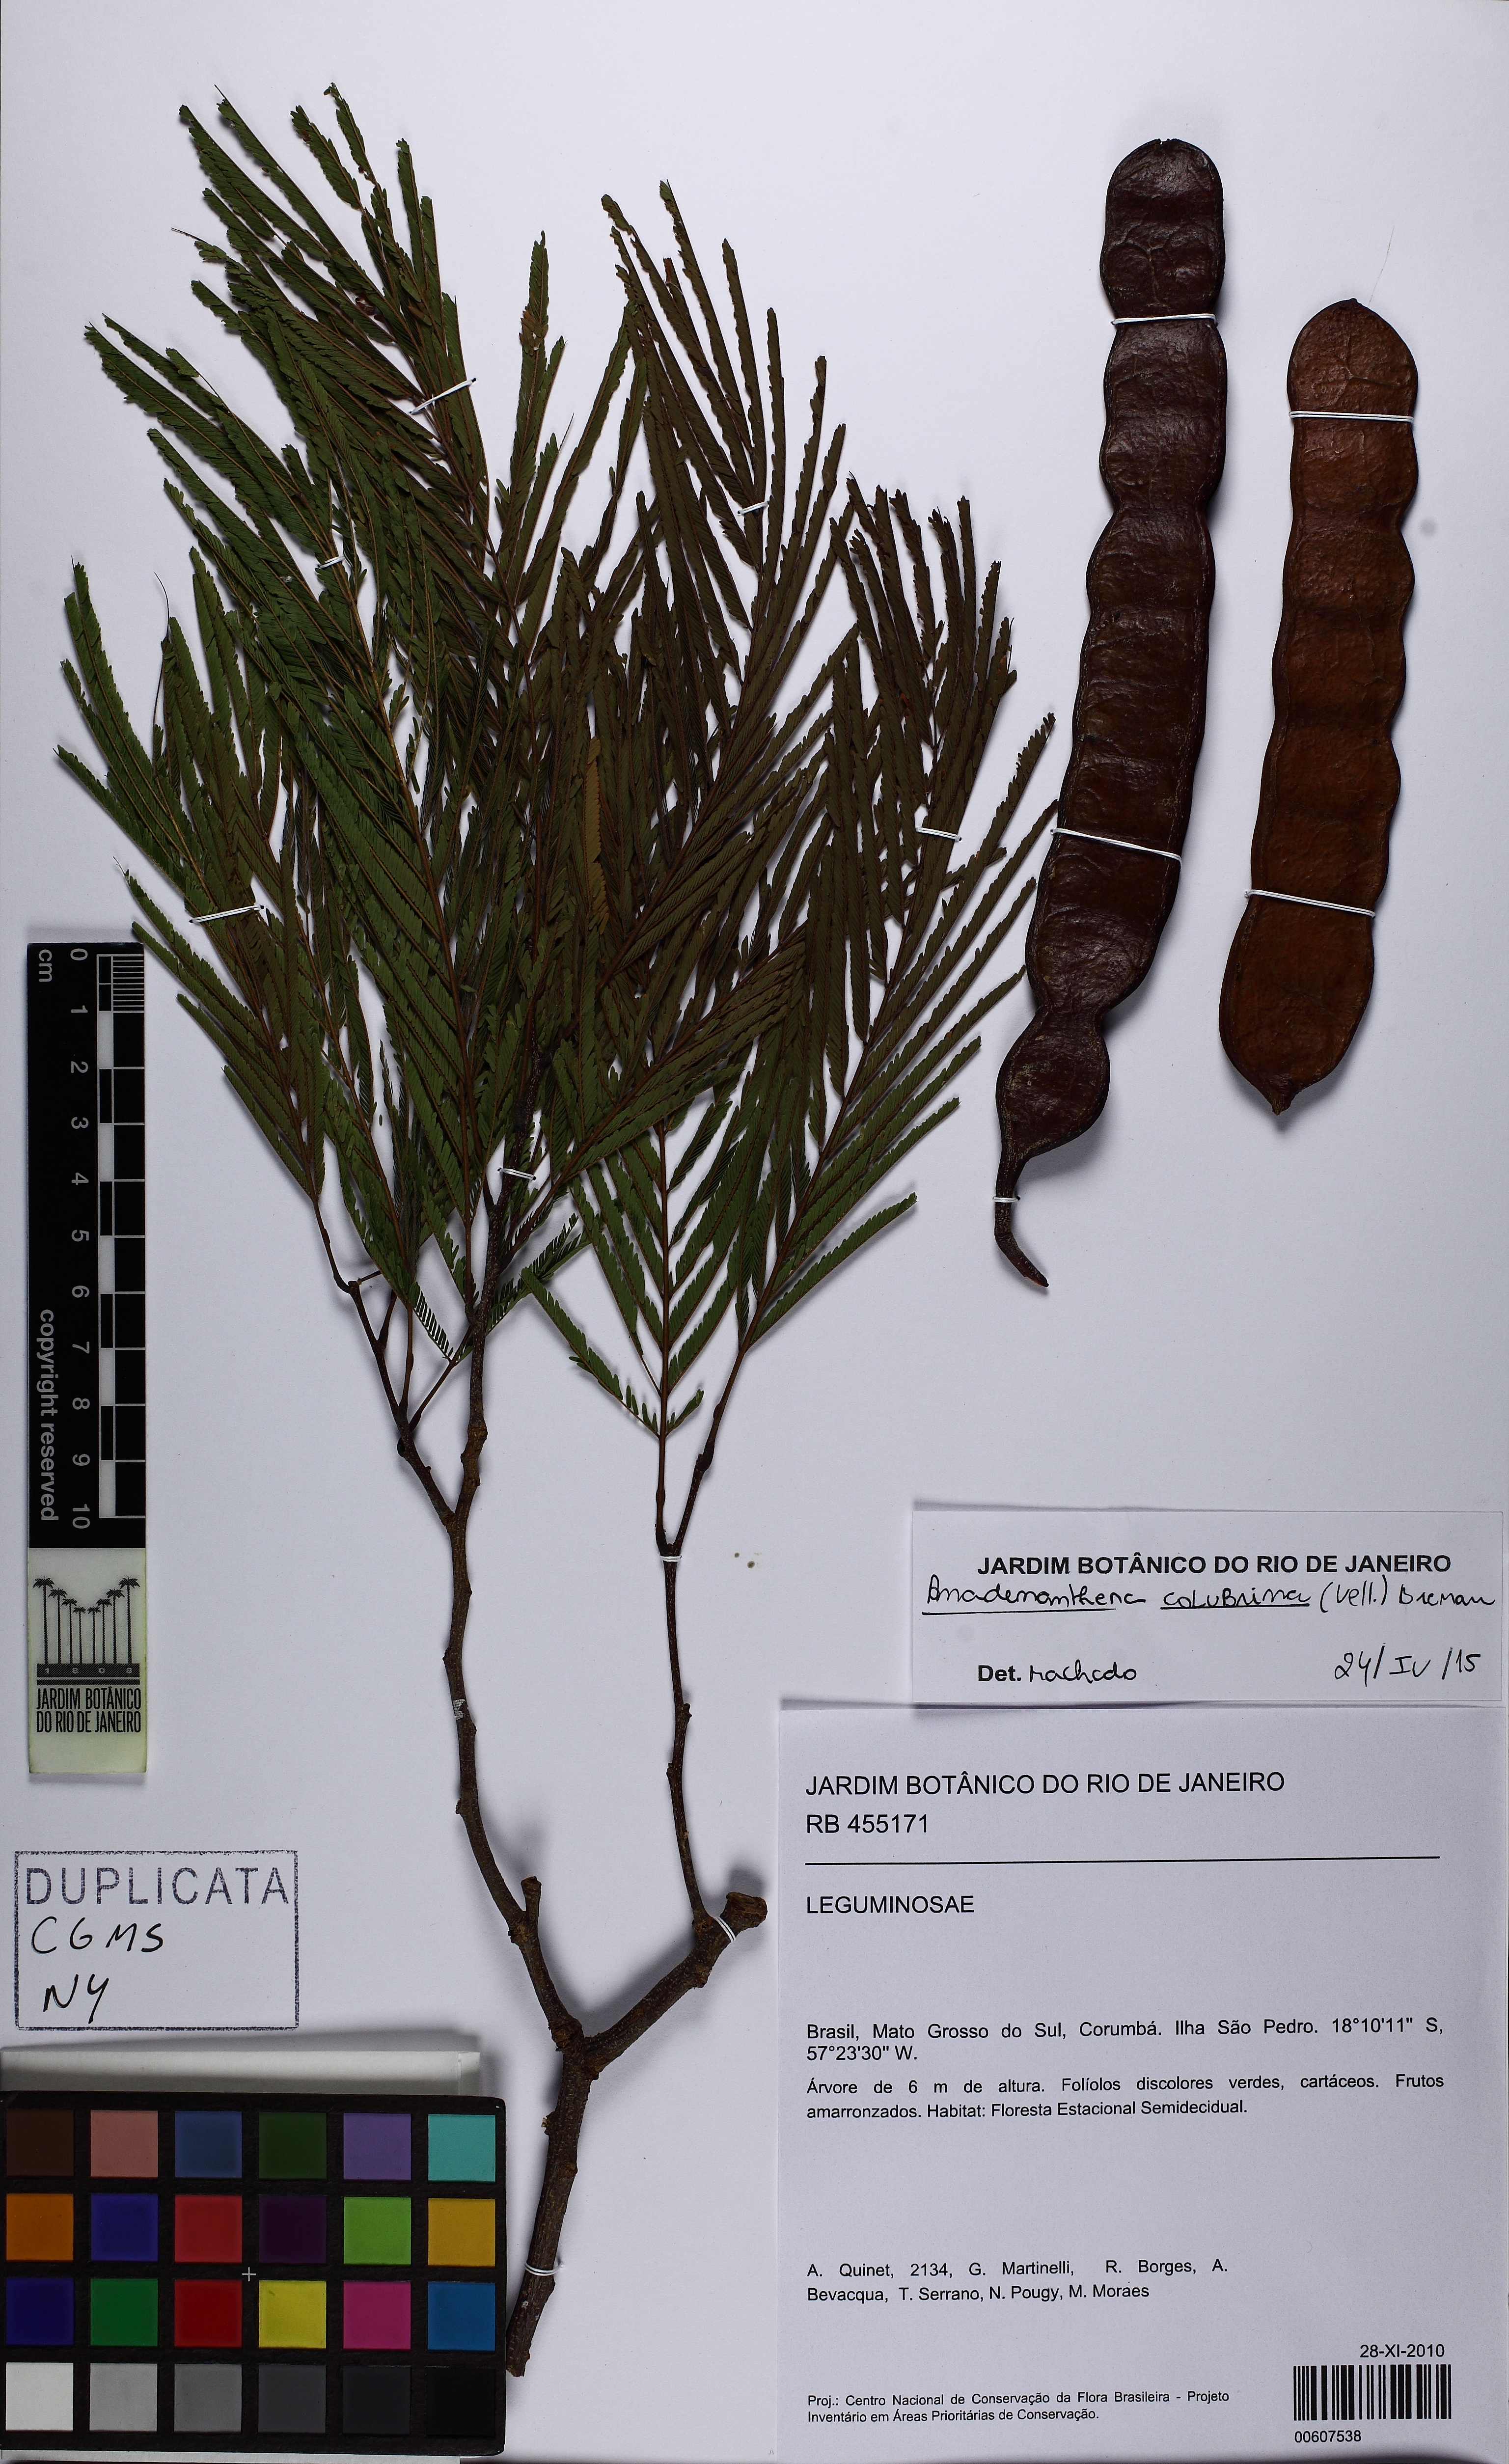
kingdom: Plantae
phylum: Tracheophyta
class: Magnoliopsida
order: Fabales
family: Fabaceae
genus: Anadenanthera
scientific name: Anadenanthera colubrina
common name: Curupay
